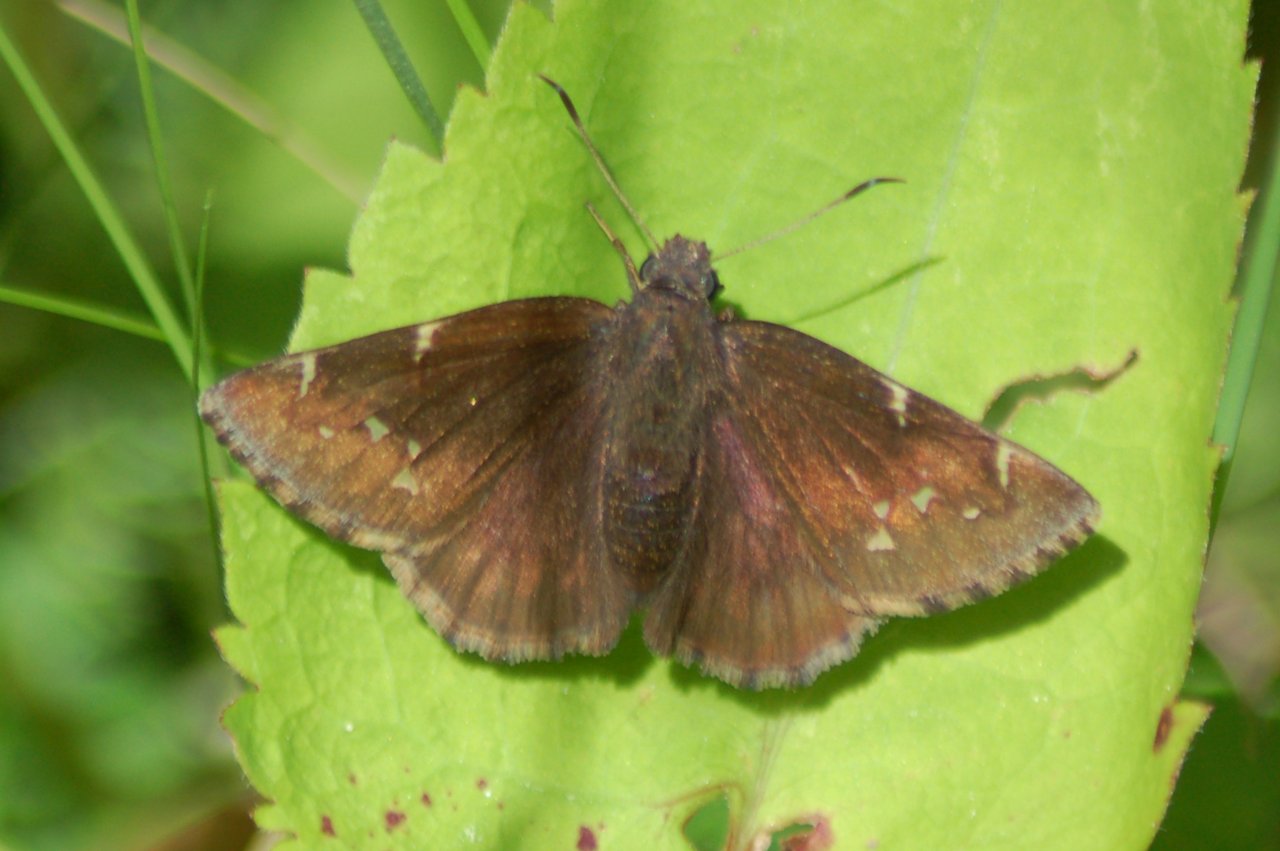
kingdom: Animalia
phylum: Arthropoda
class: Insecta
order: Lepidoptera
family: Hesperiidae
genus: Autochton
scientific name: Autochton
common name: Northern Cloudywing
